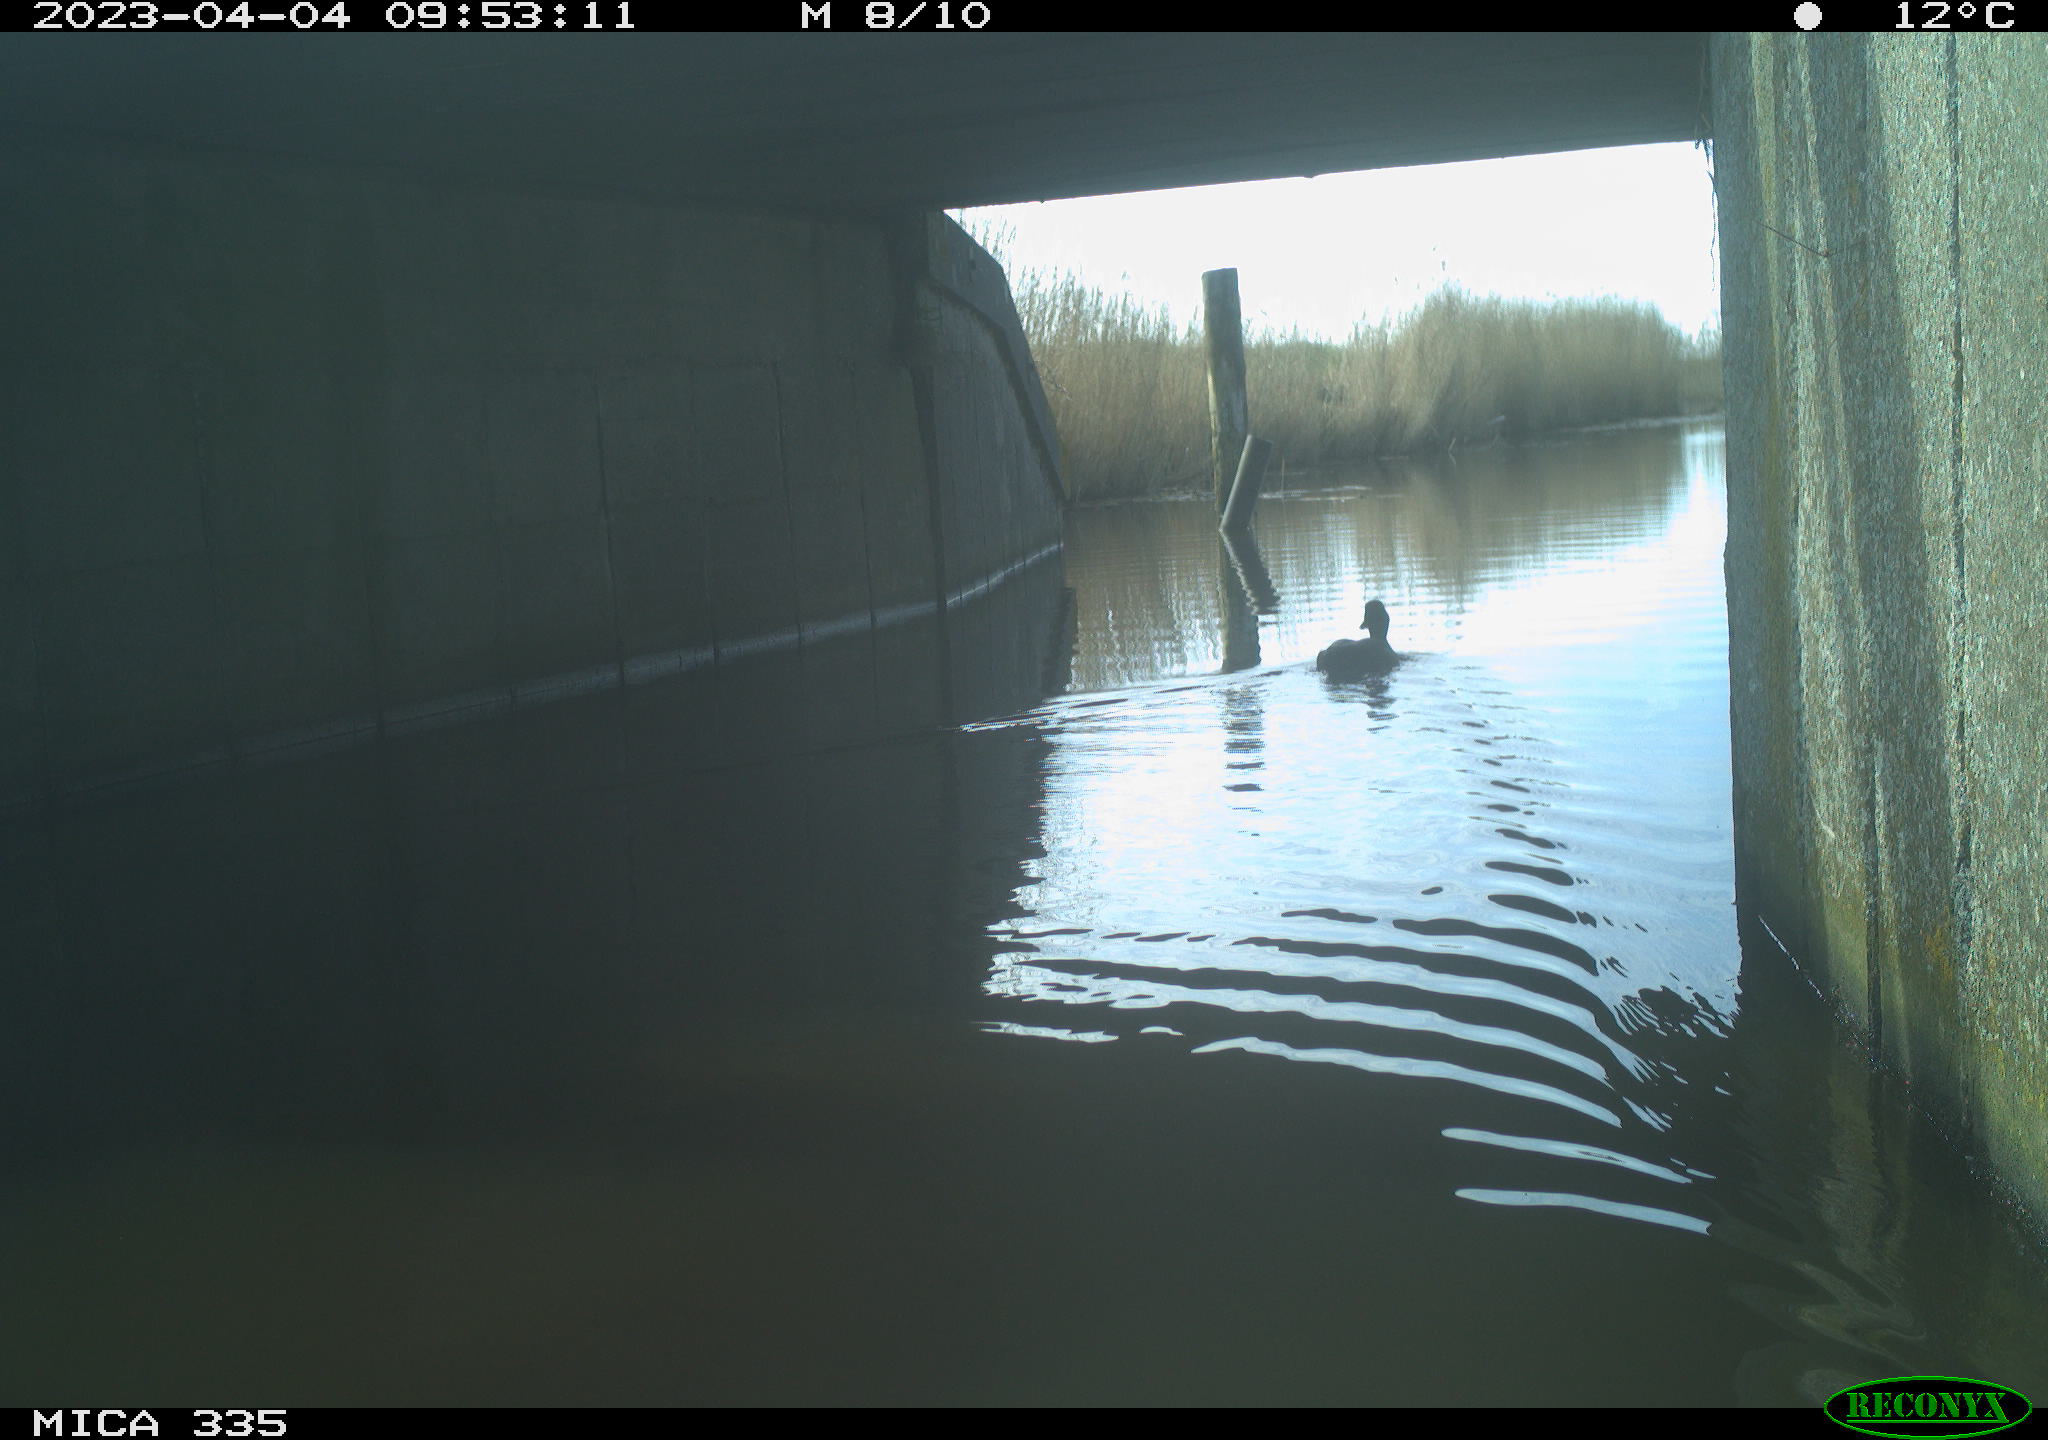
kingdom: Animalia
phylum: Chordata
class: Aves
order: Anseriformes
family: Anatidae
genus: Anas
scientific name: Anas
